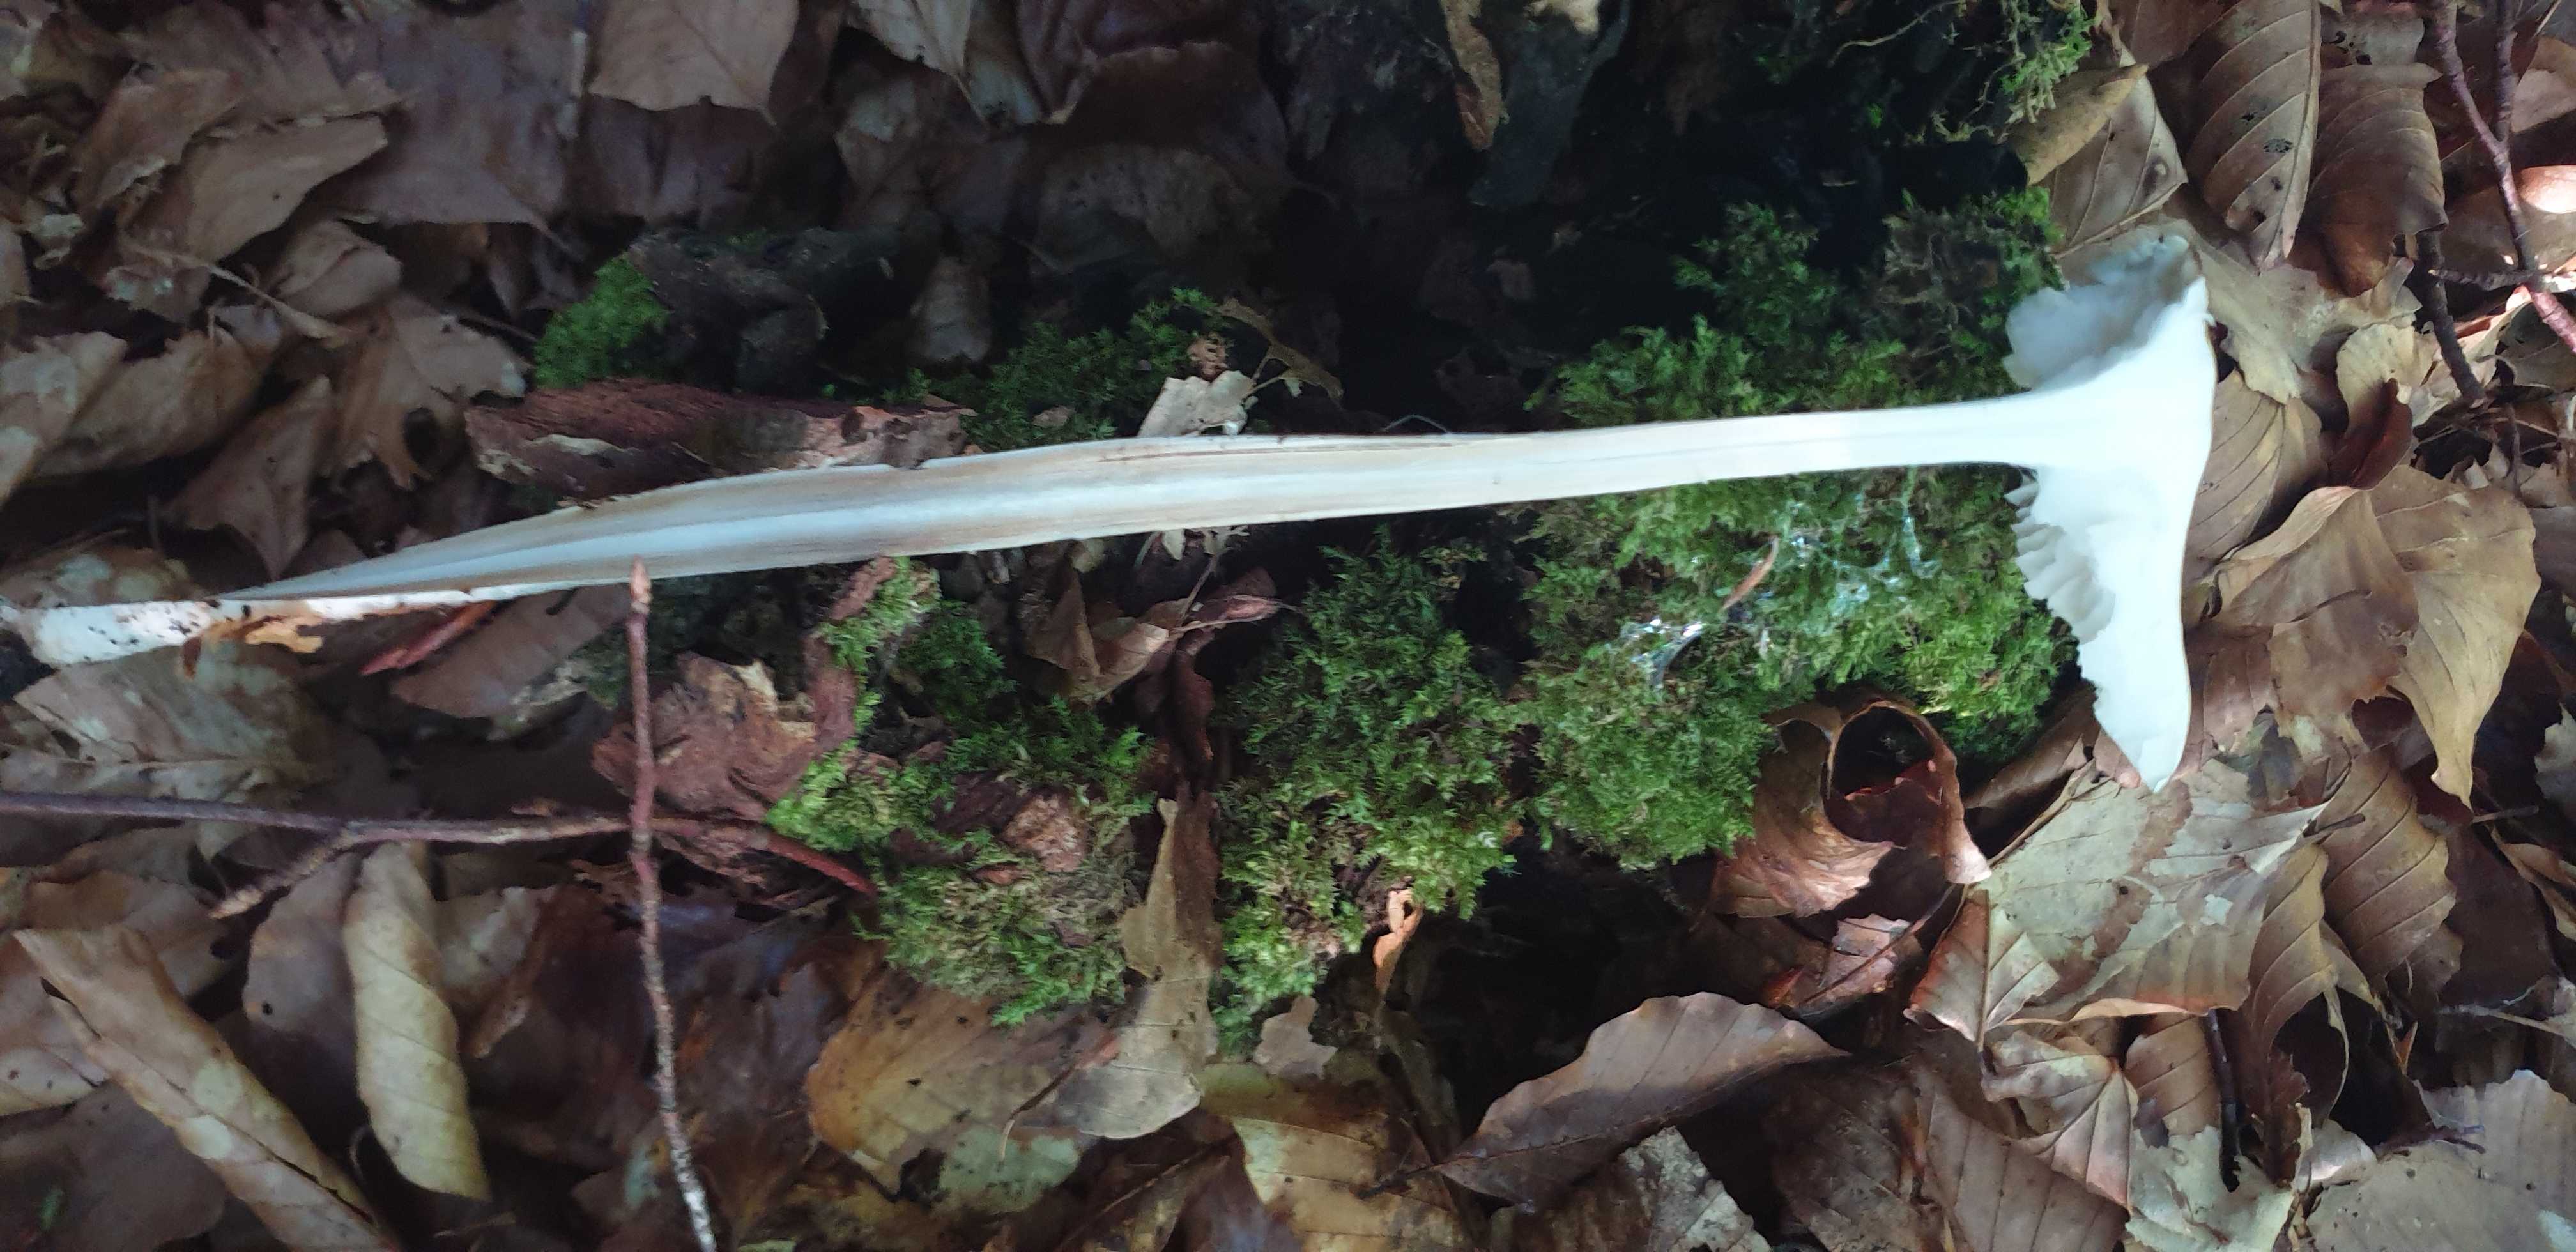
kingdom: Fungi
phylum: Basidiomycota
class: Agaricomycetes
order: Agaricales
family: Physalacriaceae
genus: Hymenopellis
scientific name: Hymenopellis radicata
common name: almindelig pælerodshat
